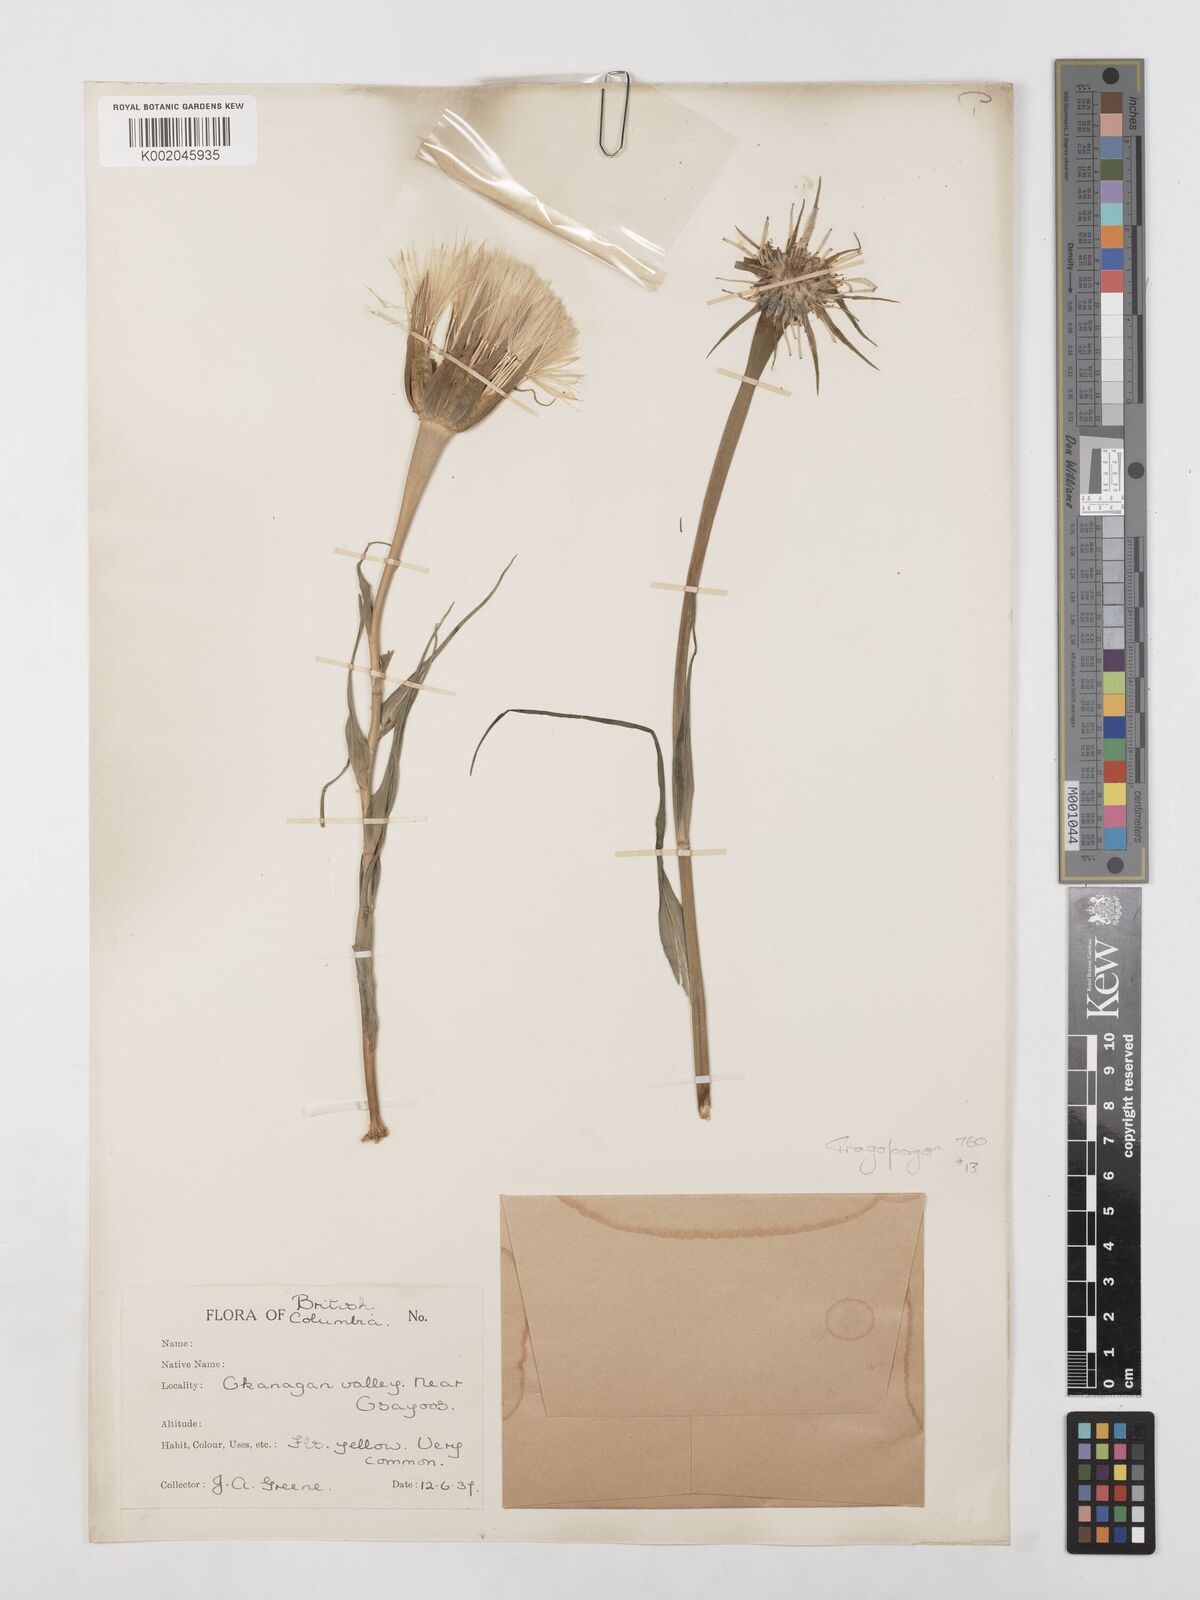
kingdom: Plantae
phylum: Tracheophyta
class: Magnoliopsida
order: Asterales
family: Asteraceae
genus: Tragopogon
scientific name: Tragopogon
